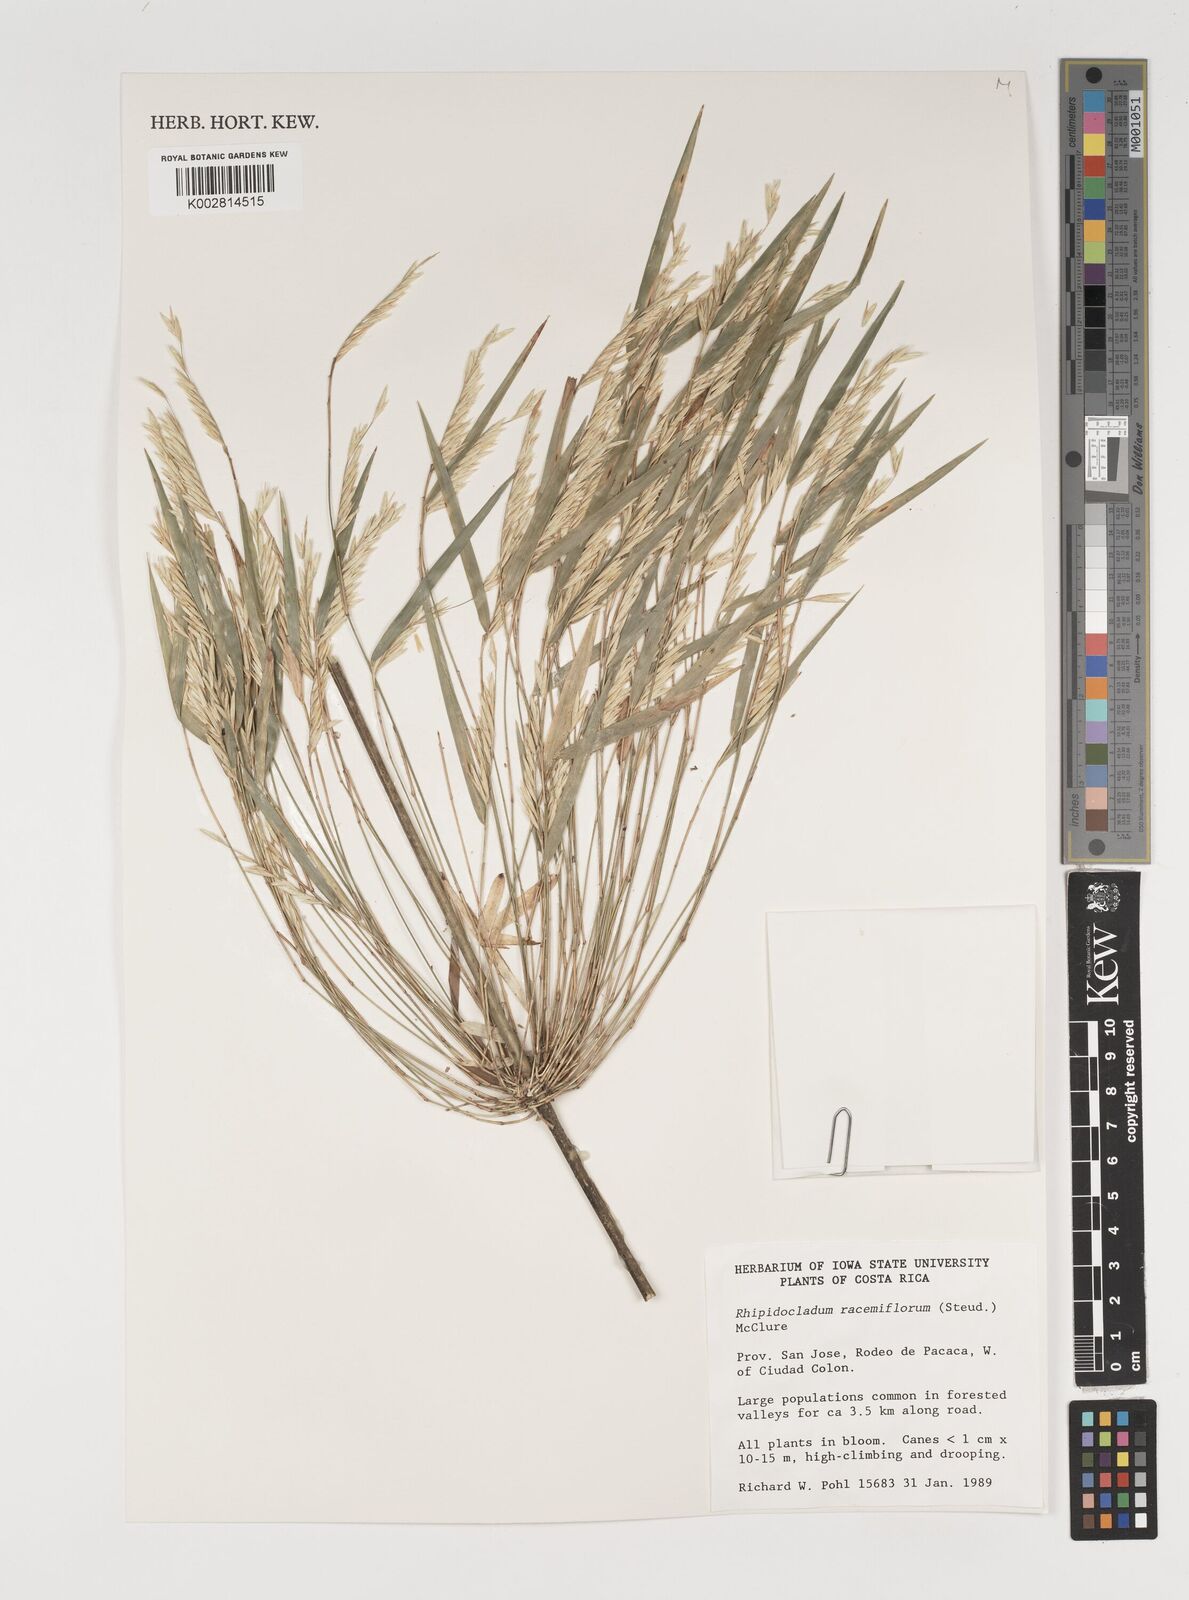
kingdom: Plantae
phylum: Tracheophyta
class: Liliopsida
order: Poales
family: Poaceae
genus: Rhipidocladum
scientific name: Rhipidocladum racemiflorum
